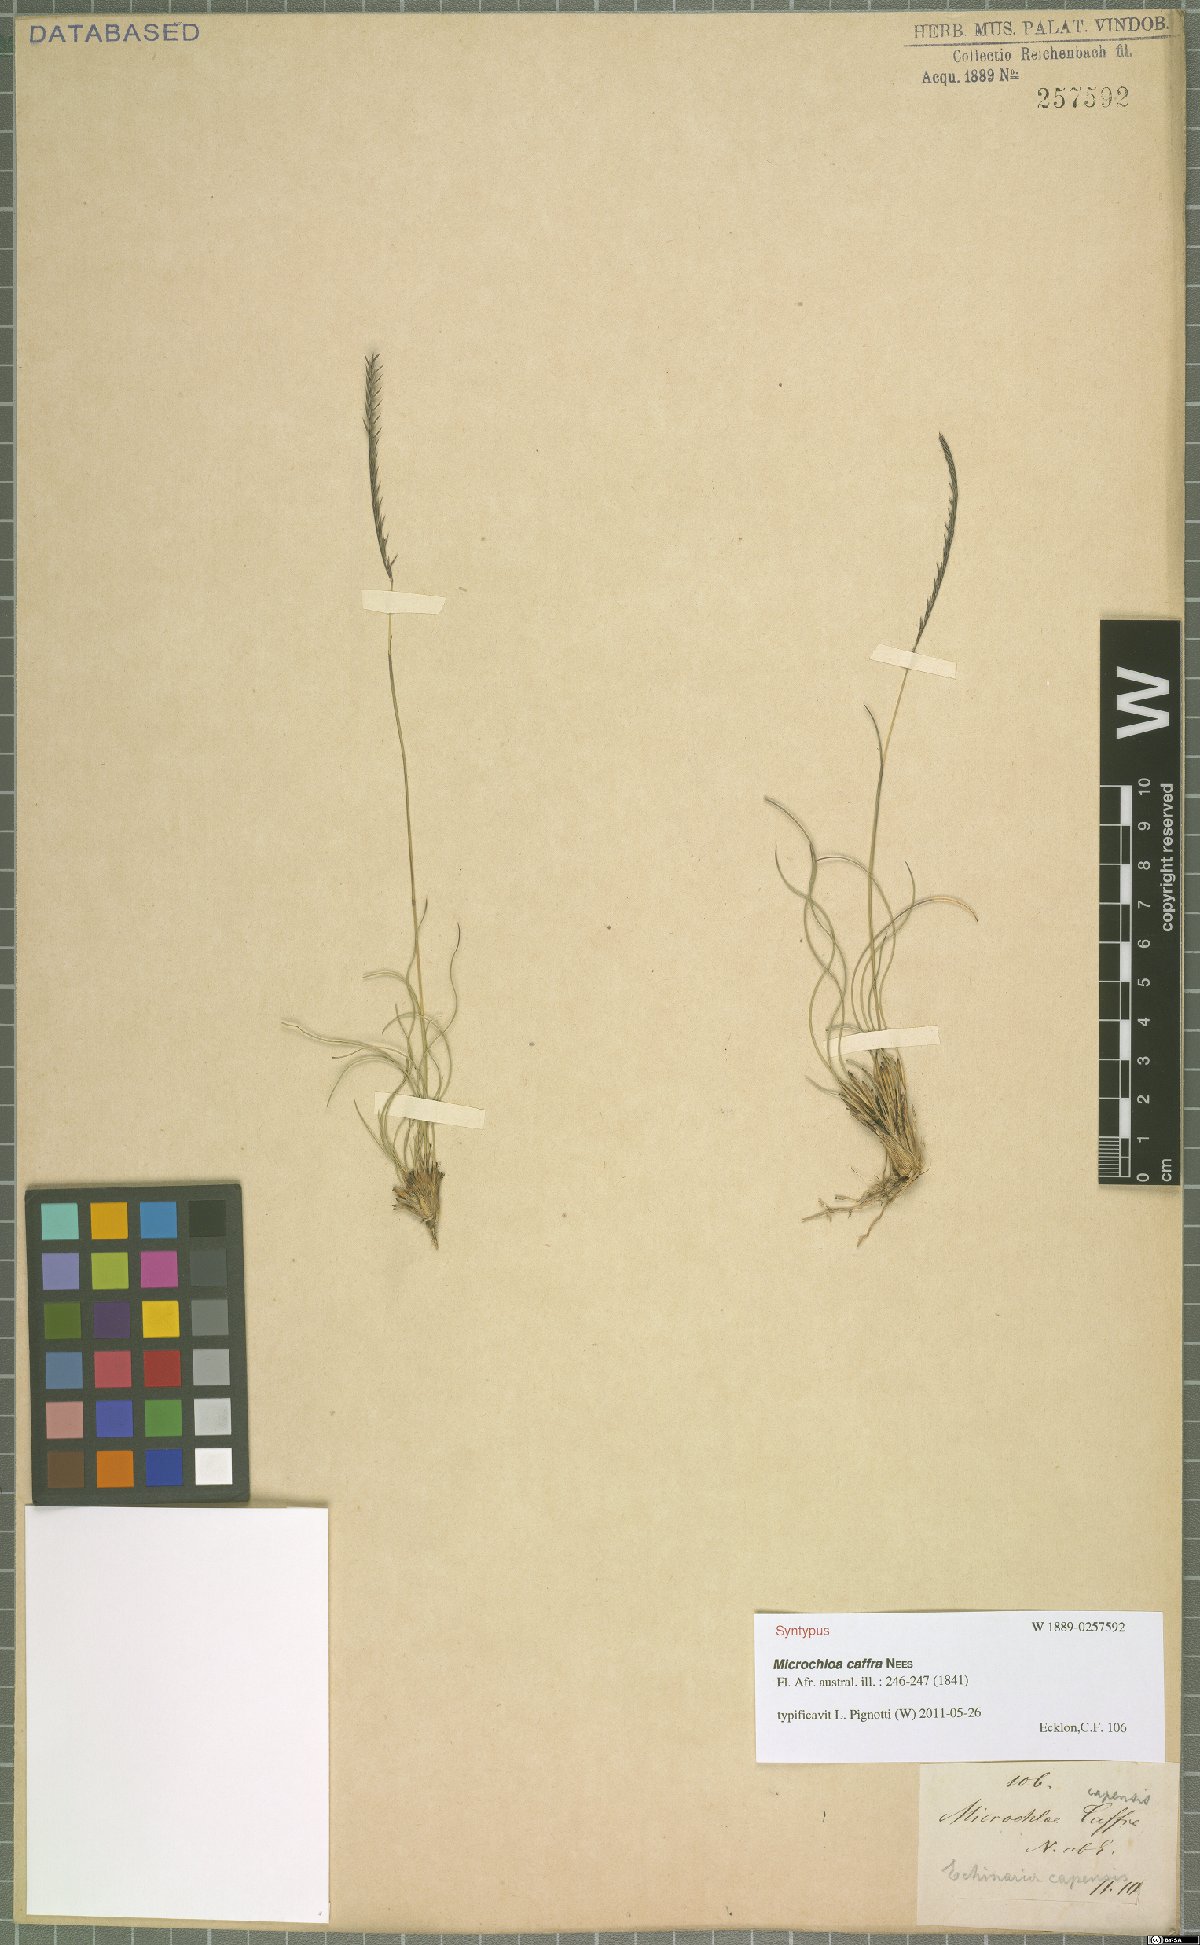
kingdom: Plantae
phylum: Tracheophyta
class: Liliopsida
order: Poales
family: Poaceae
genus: Microchloa
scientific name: Microchloa caffra
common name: Pincushion grass
